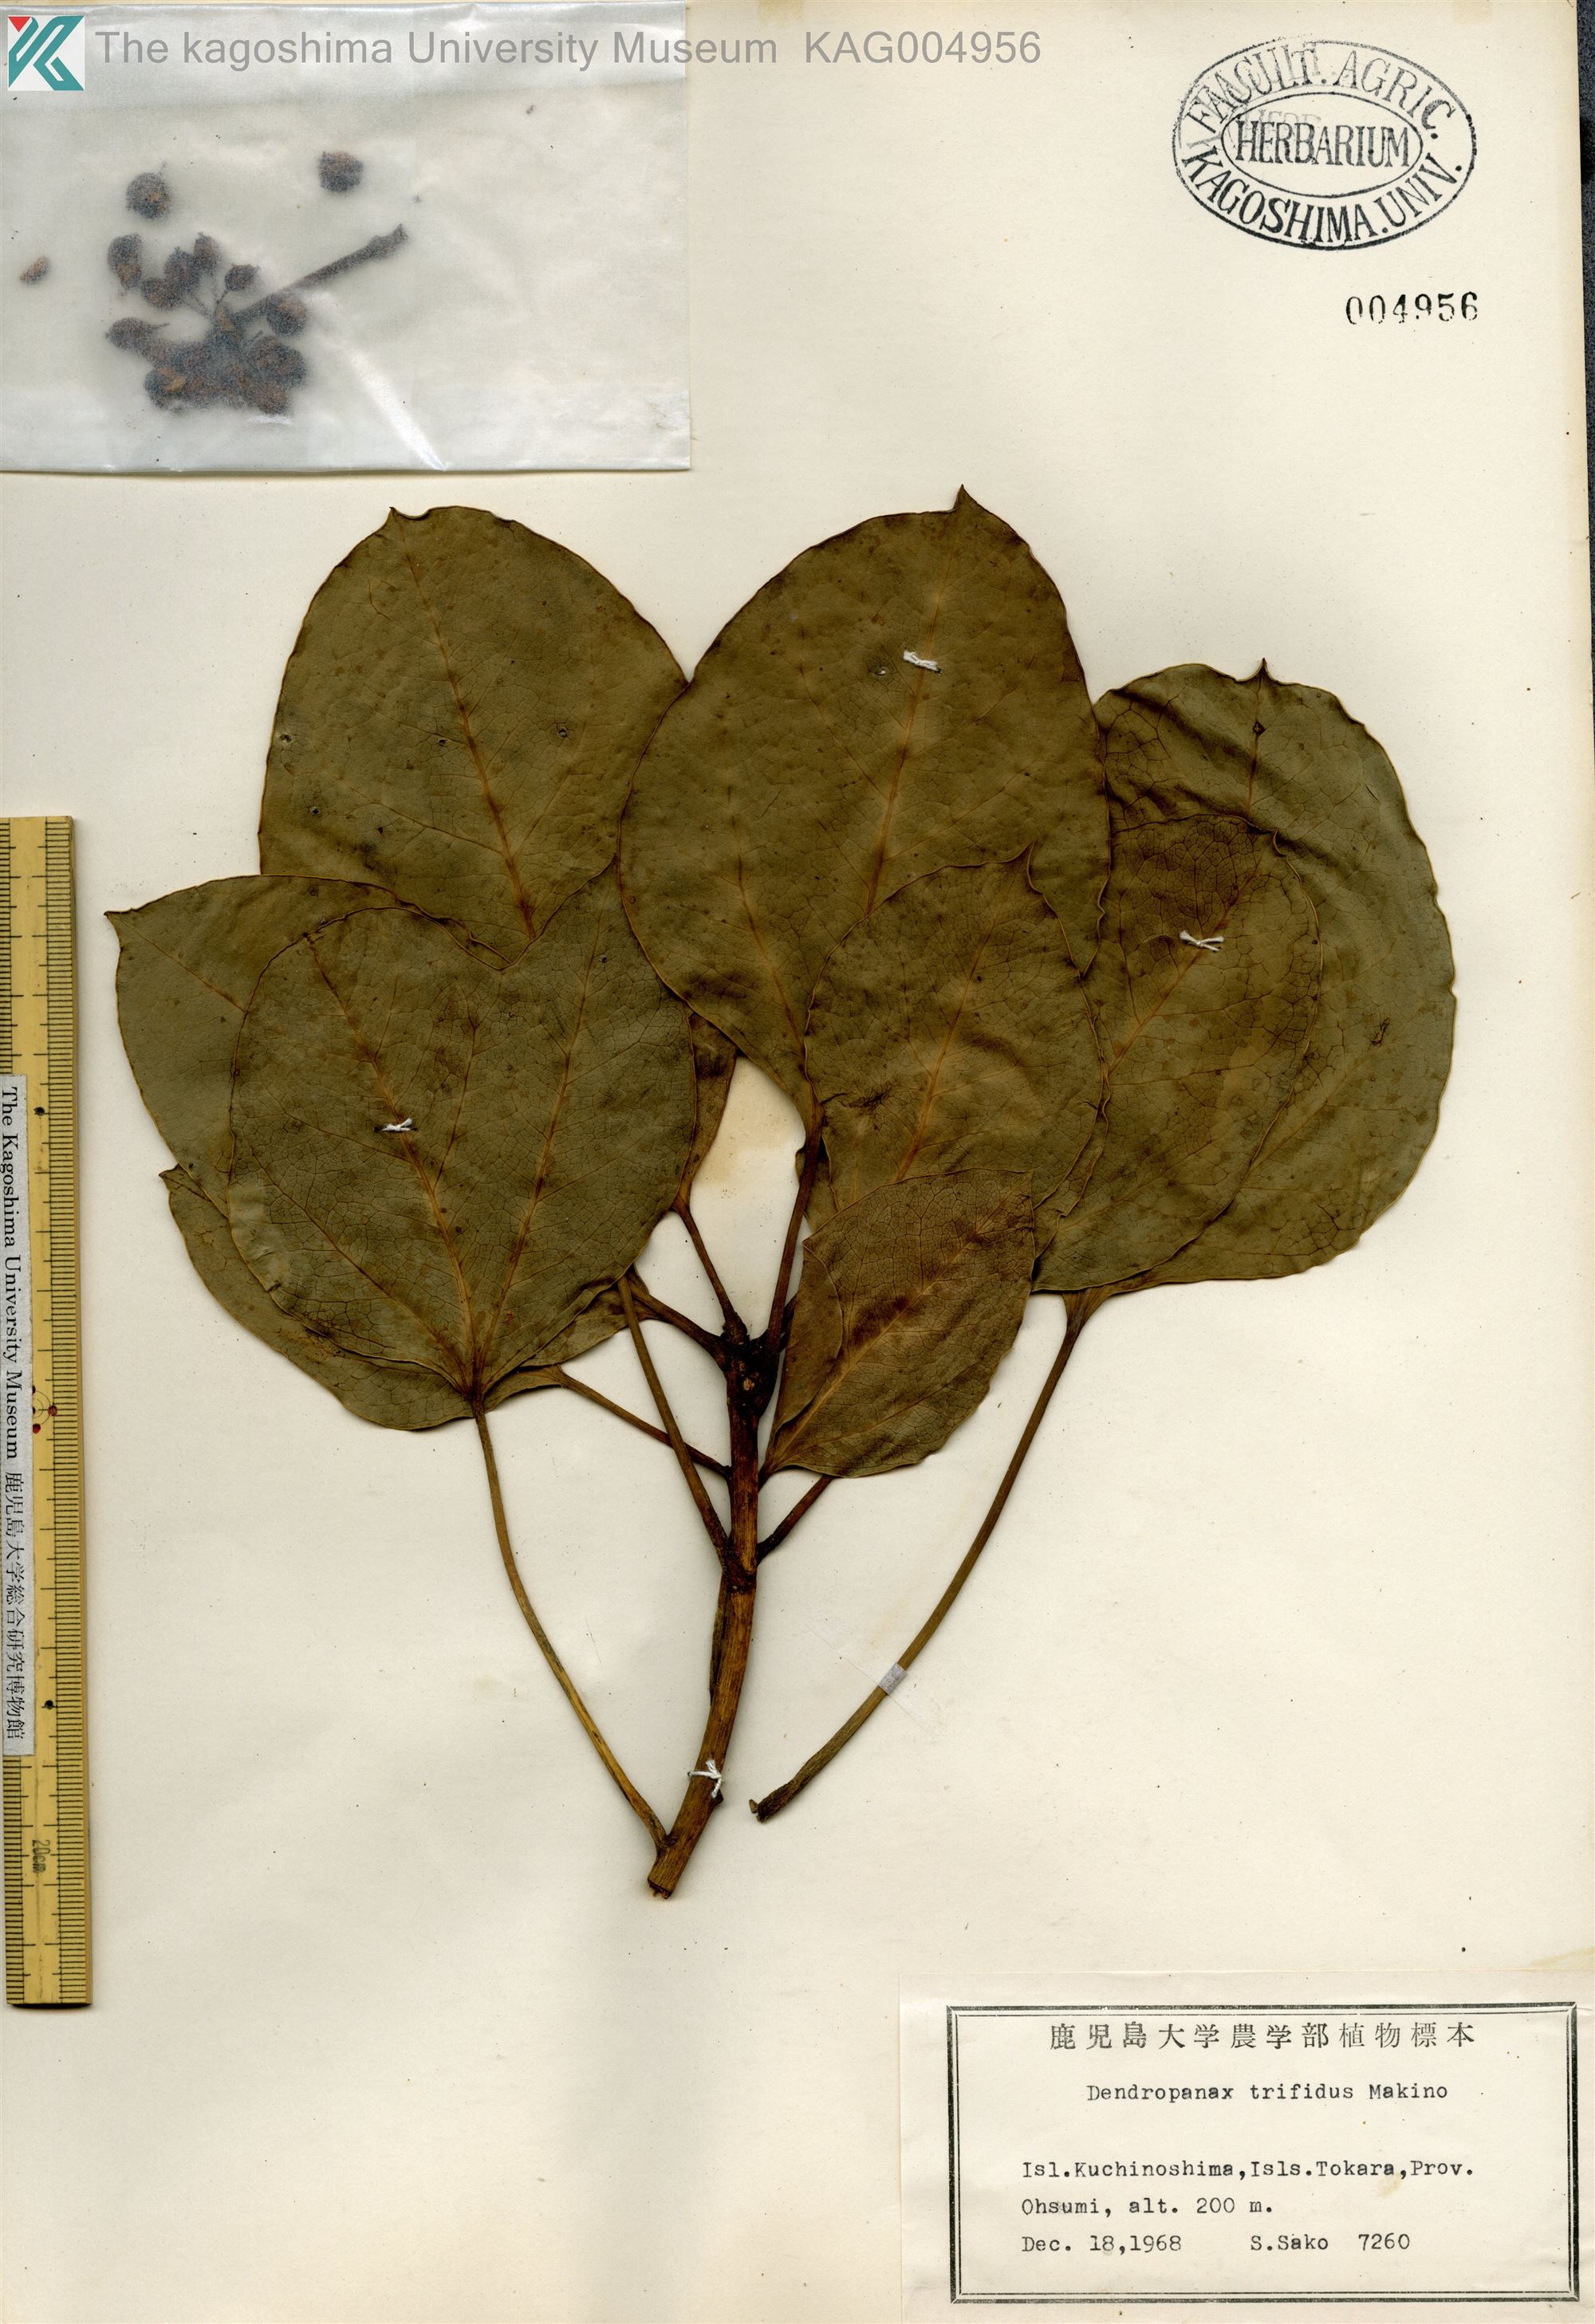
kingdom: Plantae
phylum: Tracheophyta
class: Magnoliopsida
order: Apiales
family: Araliaceae
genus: Dendropanax
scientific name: Dendropanax trifidus
